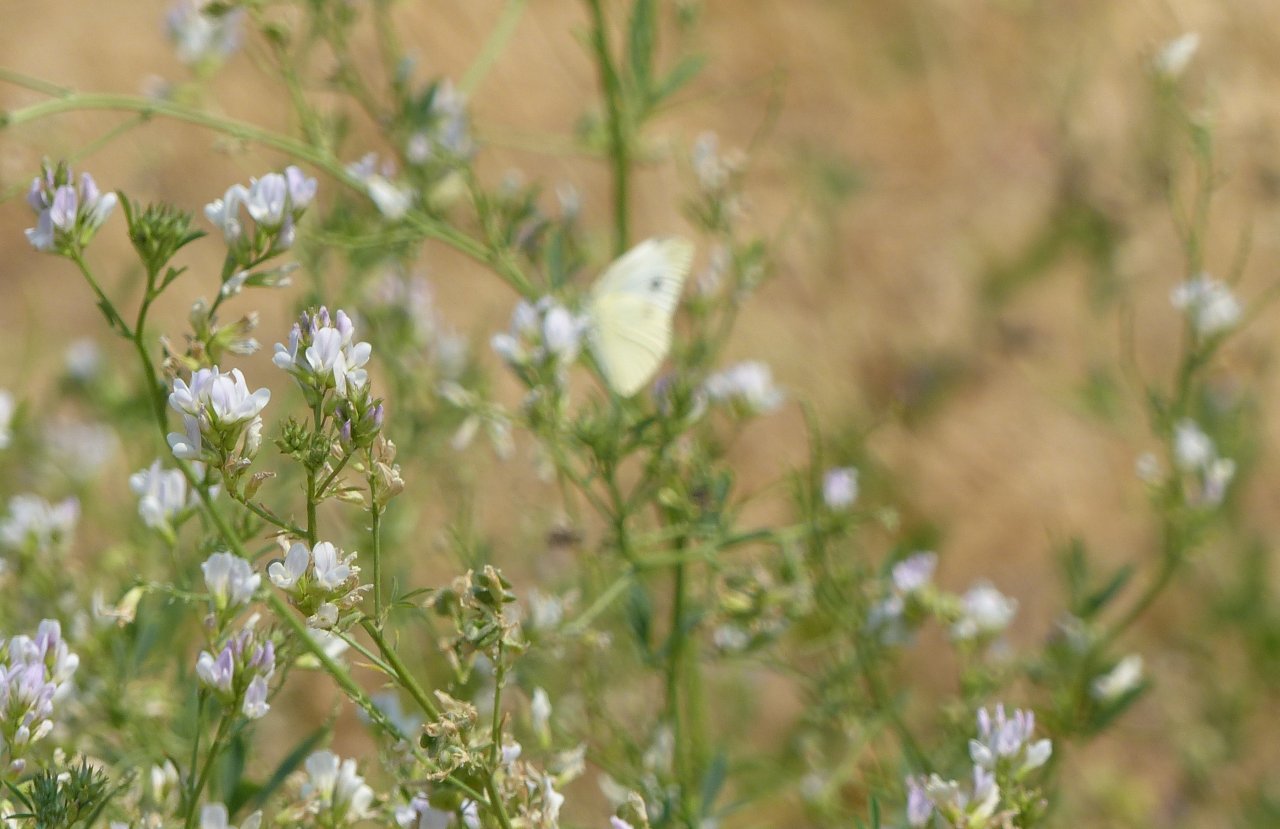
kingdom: Animalia
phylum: Arthropoda
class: Insecta
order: Lepidoptera
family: Pieridae
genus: Pieris
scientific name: Pieris rapae
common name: Cabbage White
